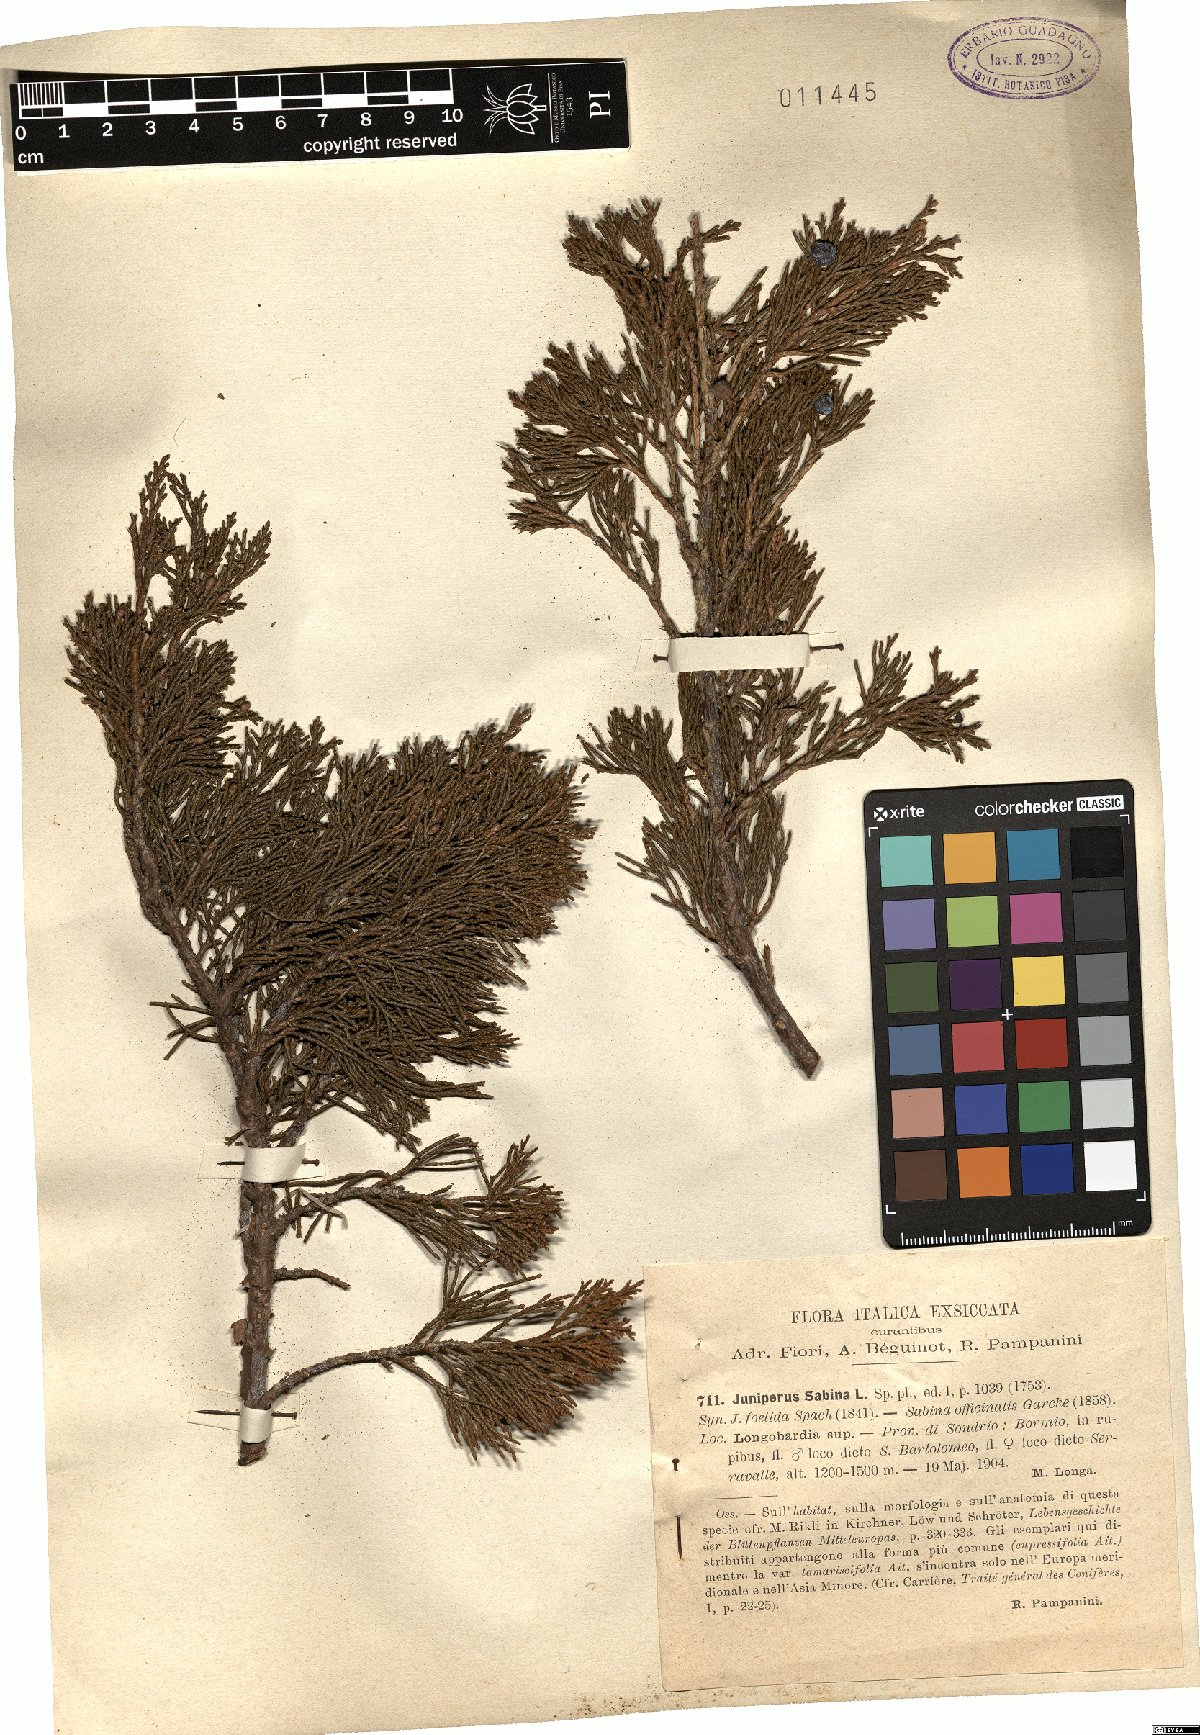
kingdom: Plantae
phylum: Tracheophyta
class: Pinopsida
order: Pinales
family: Cupressaceae
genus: Juniperus
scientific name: Juniperus sabina
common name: Savin
